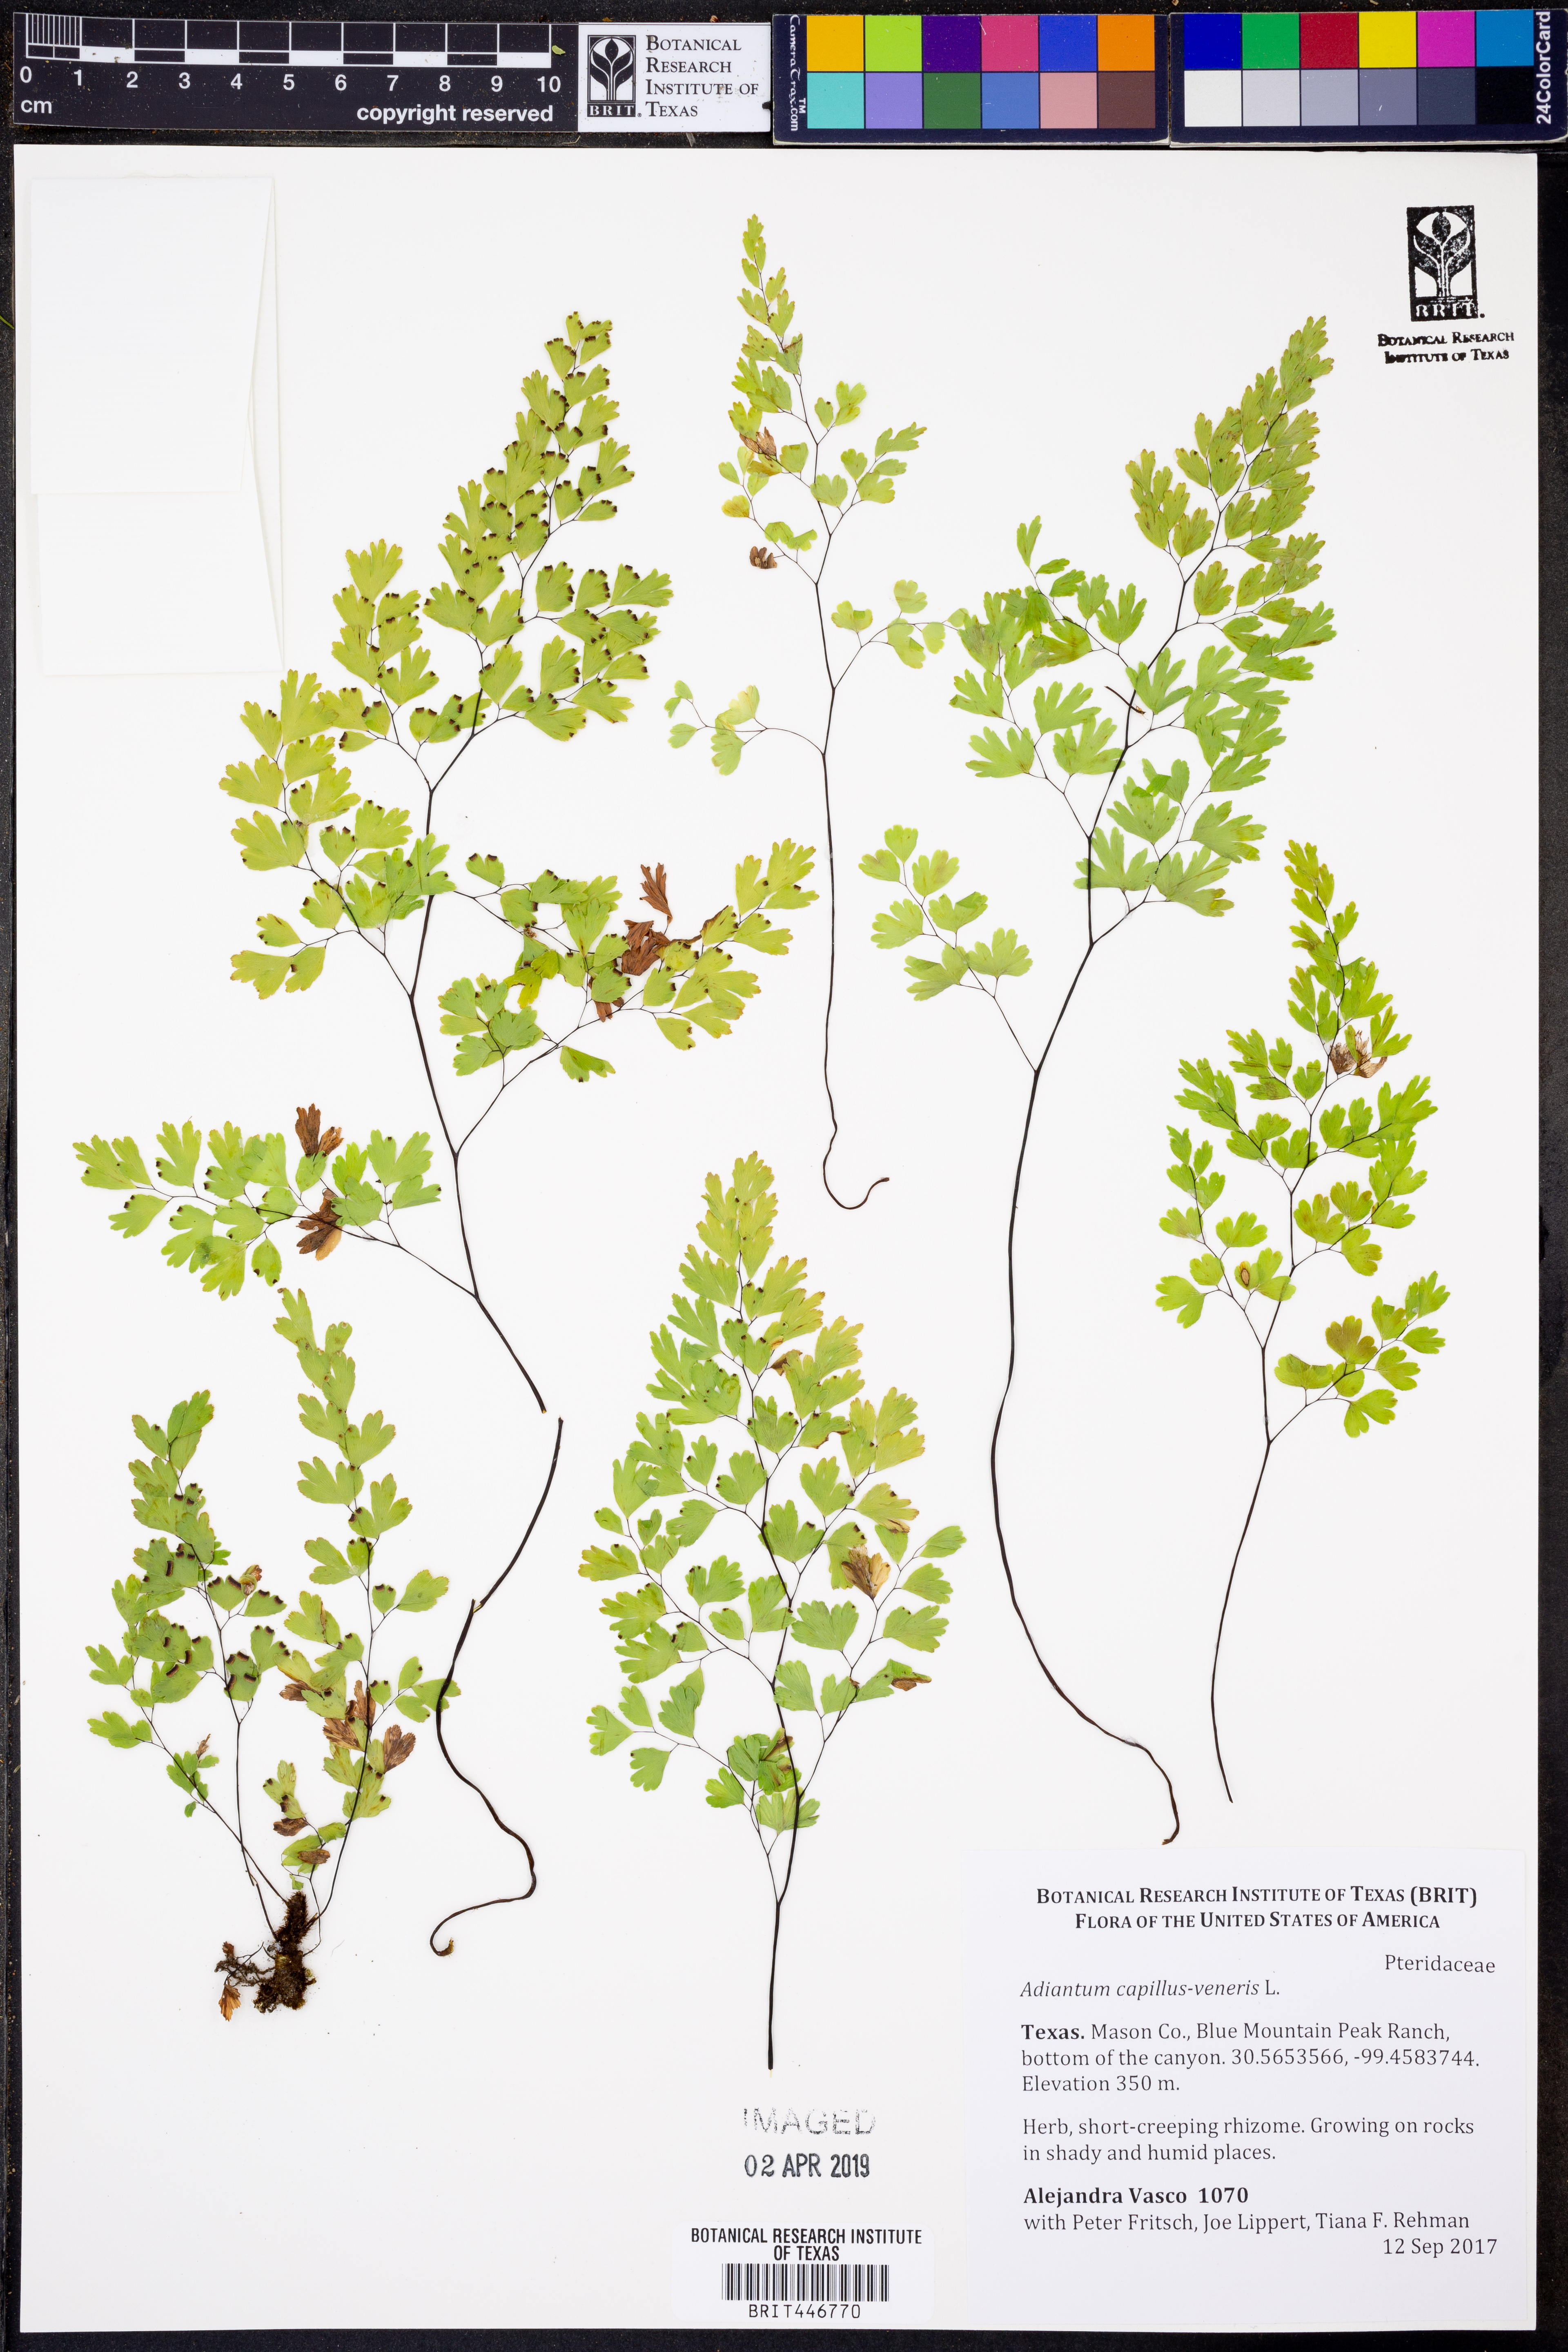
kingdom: Plantae
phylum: Tracheophyta
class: Polypodiopsida
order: Polypodiales
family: Pteridaceae
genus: Adiantum
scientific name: Adiantum capillus-veneris
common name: Maidenhair fern
